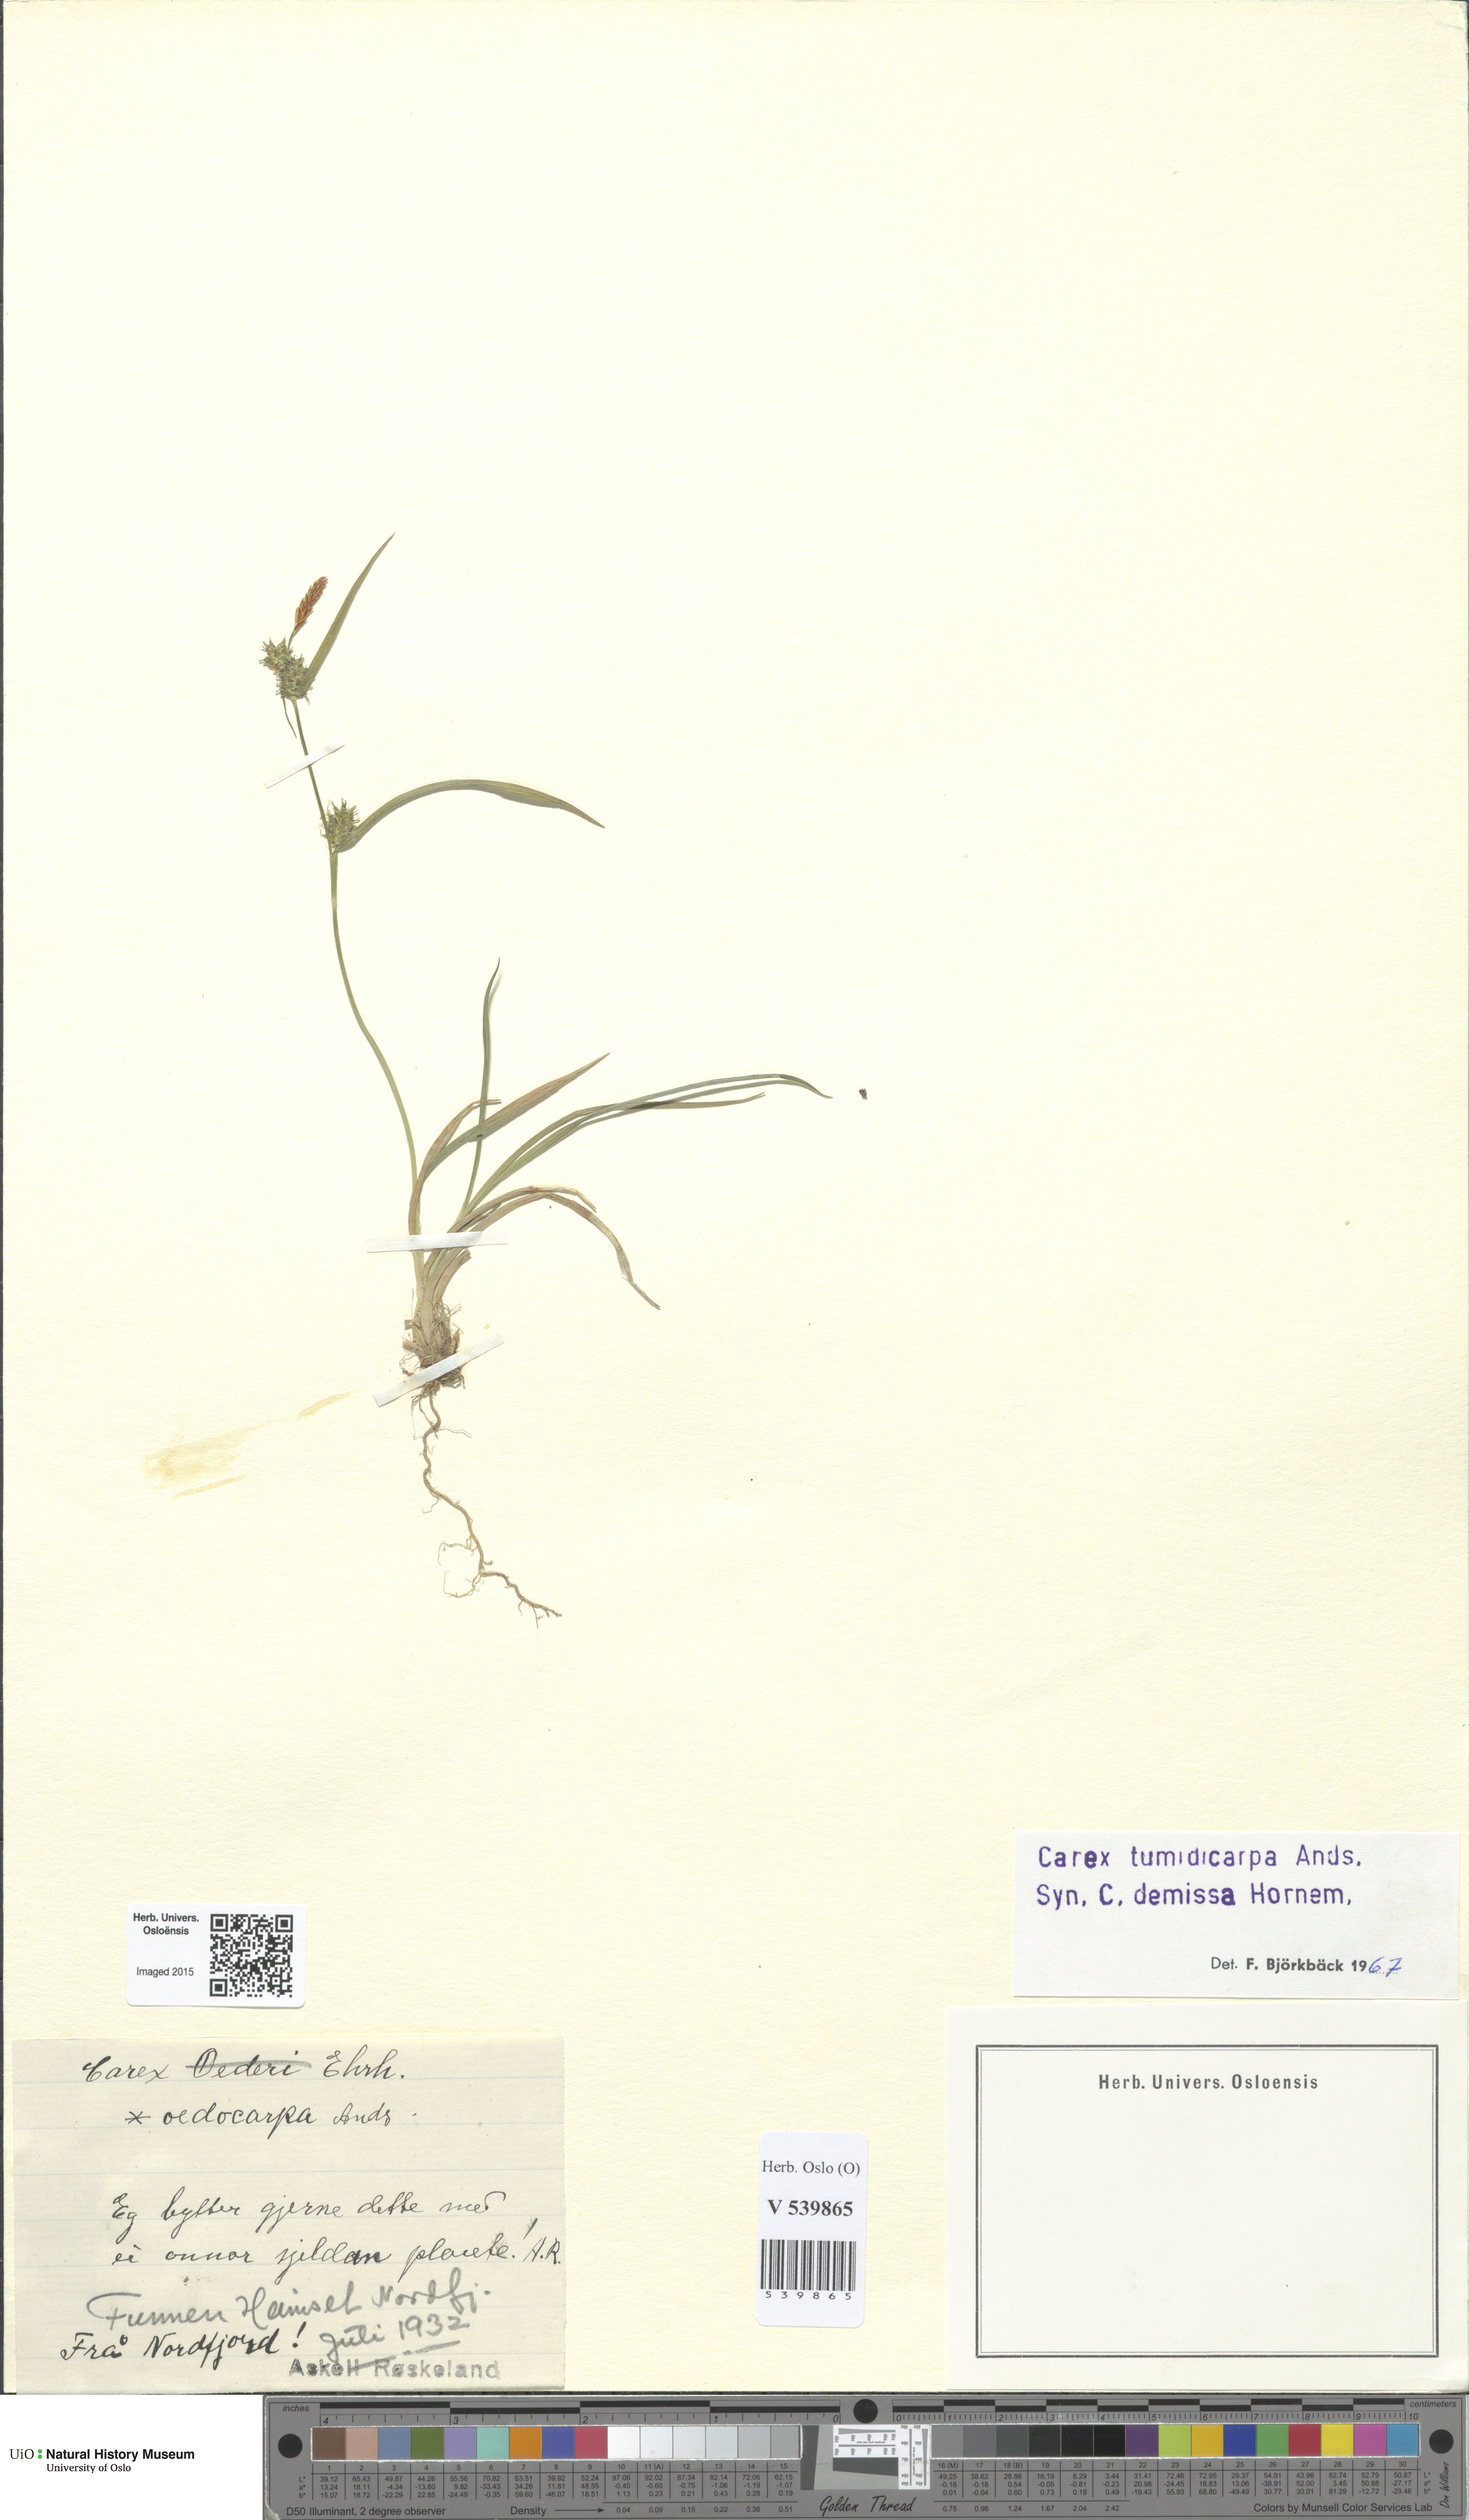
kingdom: Plantae
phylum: Tracheophyta
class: Liliopsida
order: Poales
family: Cyperaceae
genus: Carex
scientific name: Carex demissa
